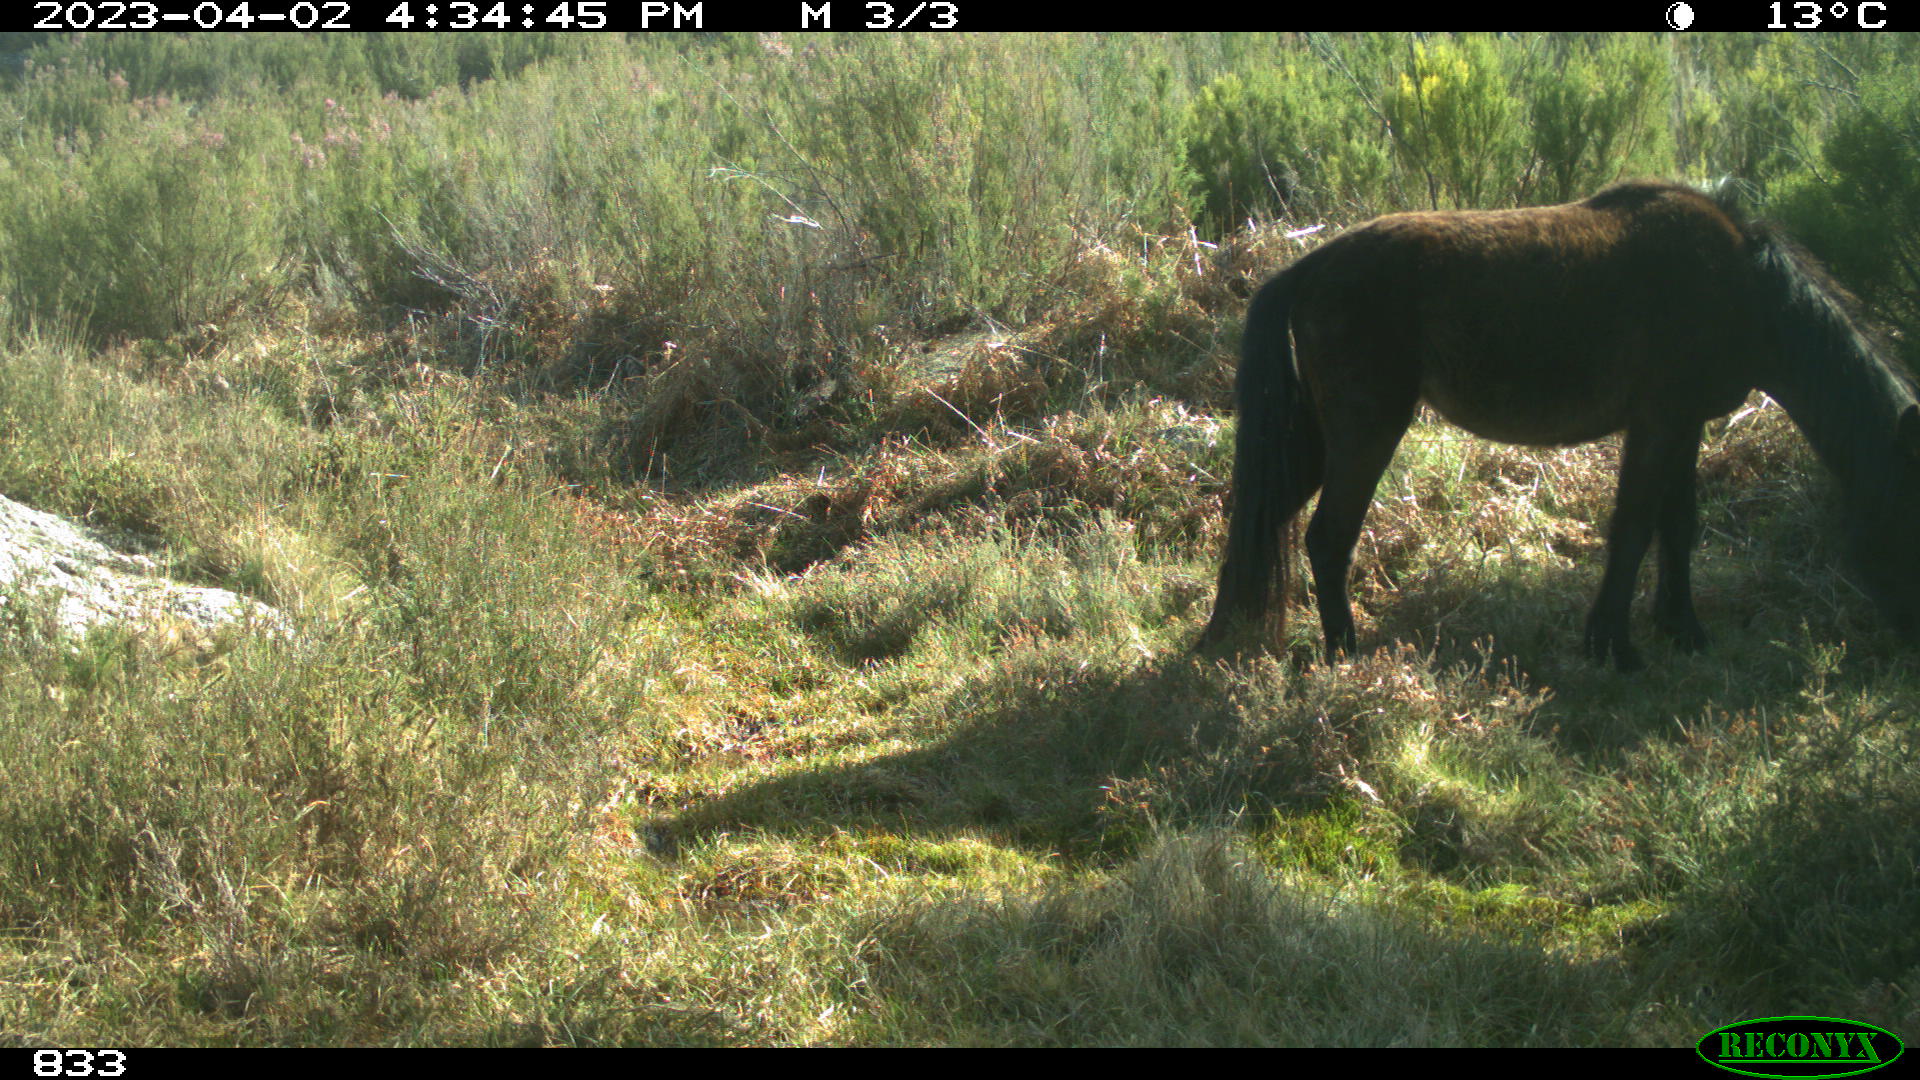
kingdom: Animalia
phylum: Chordata
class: Mammalia
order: Perissodactyla
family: Equidae
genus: Equus
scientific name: Equus caballus
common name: Horse
